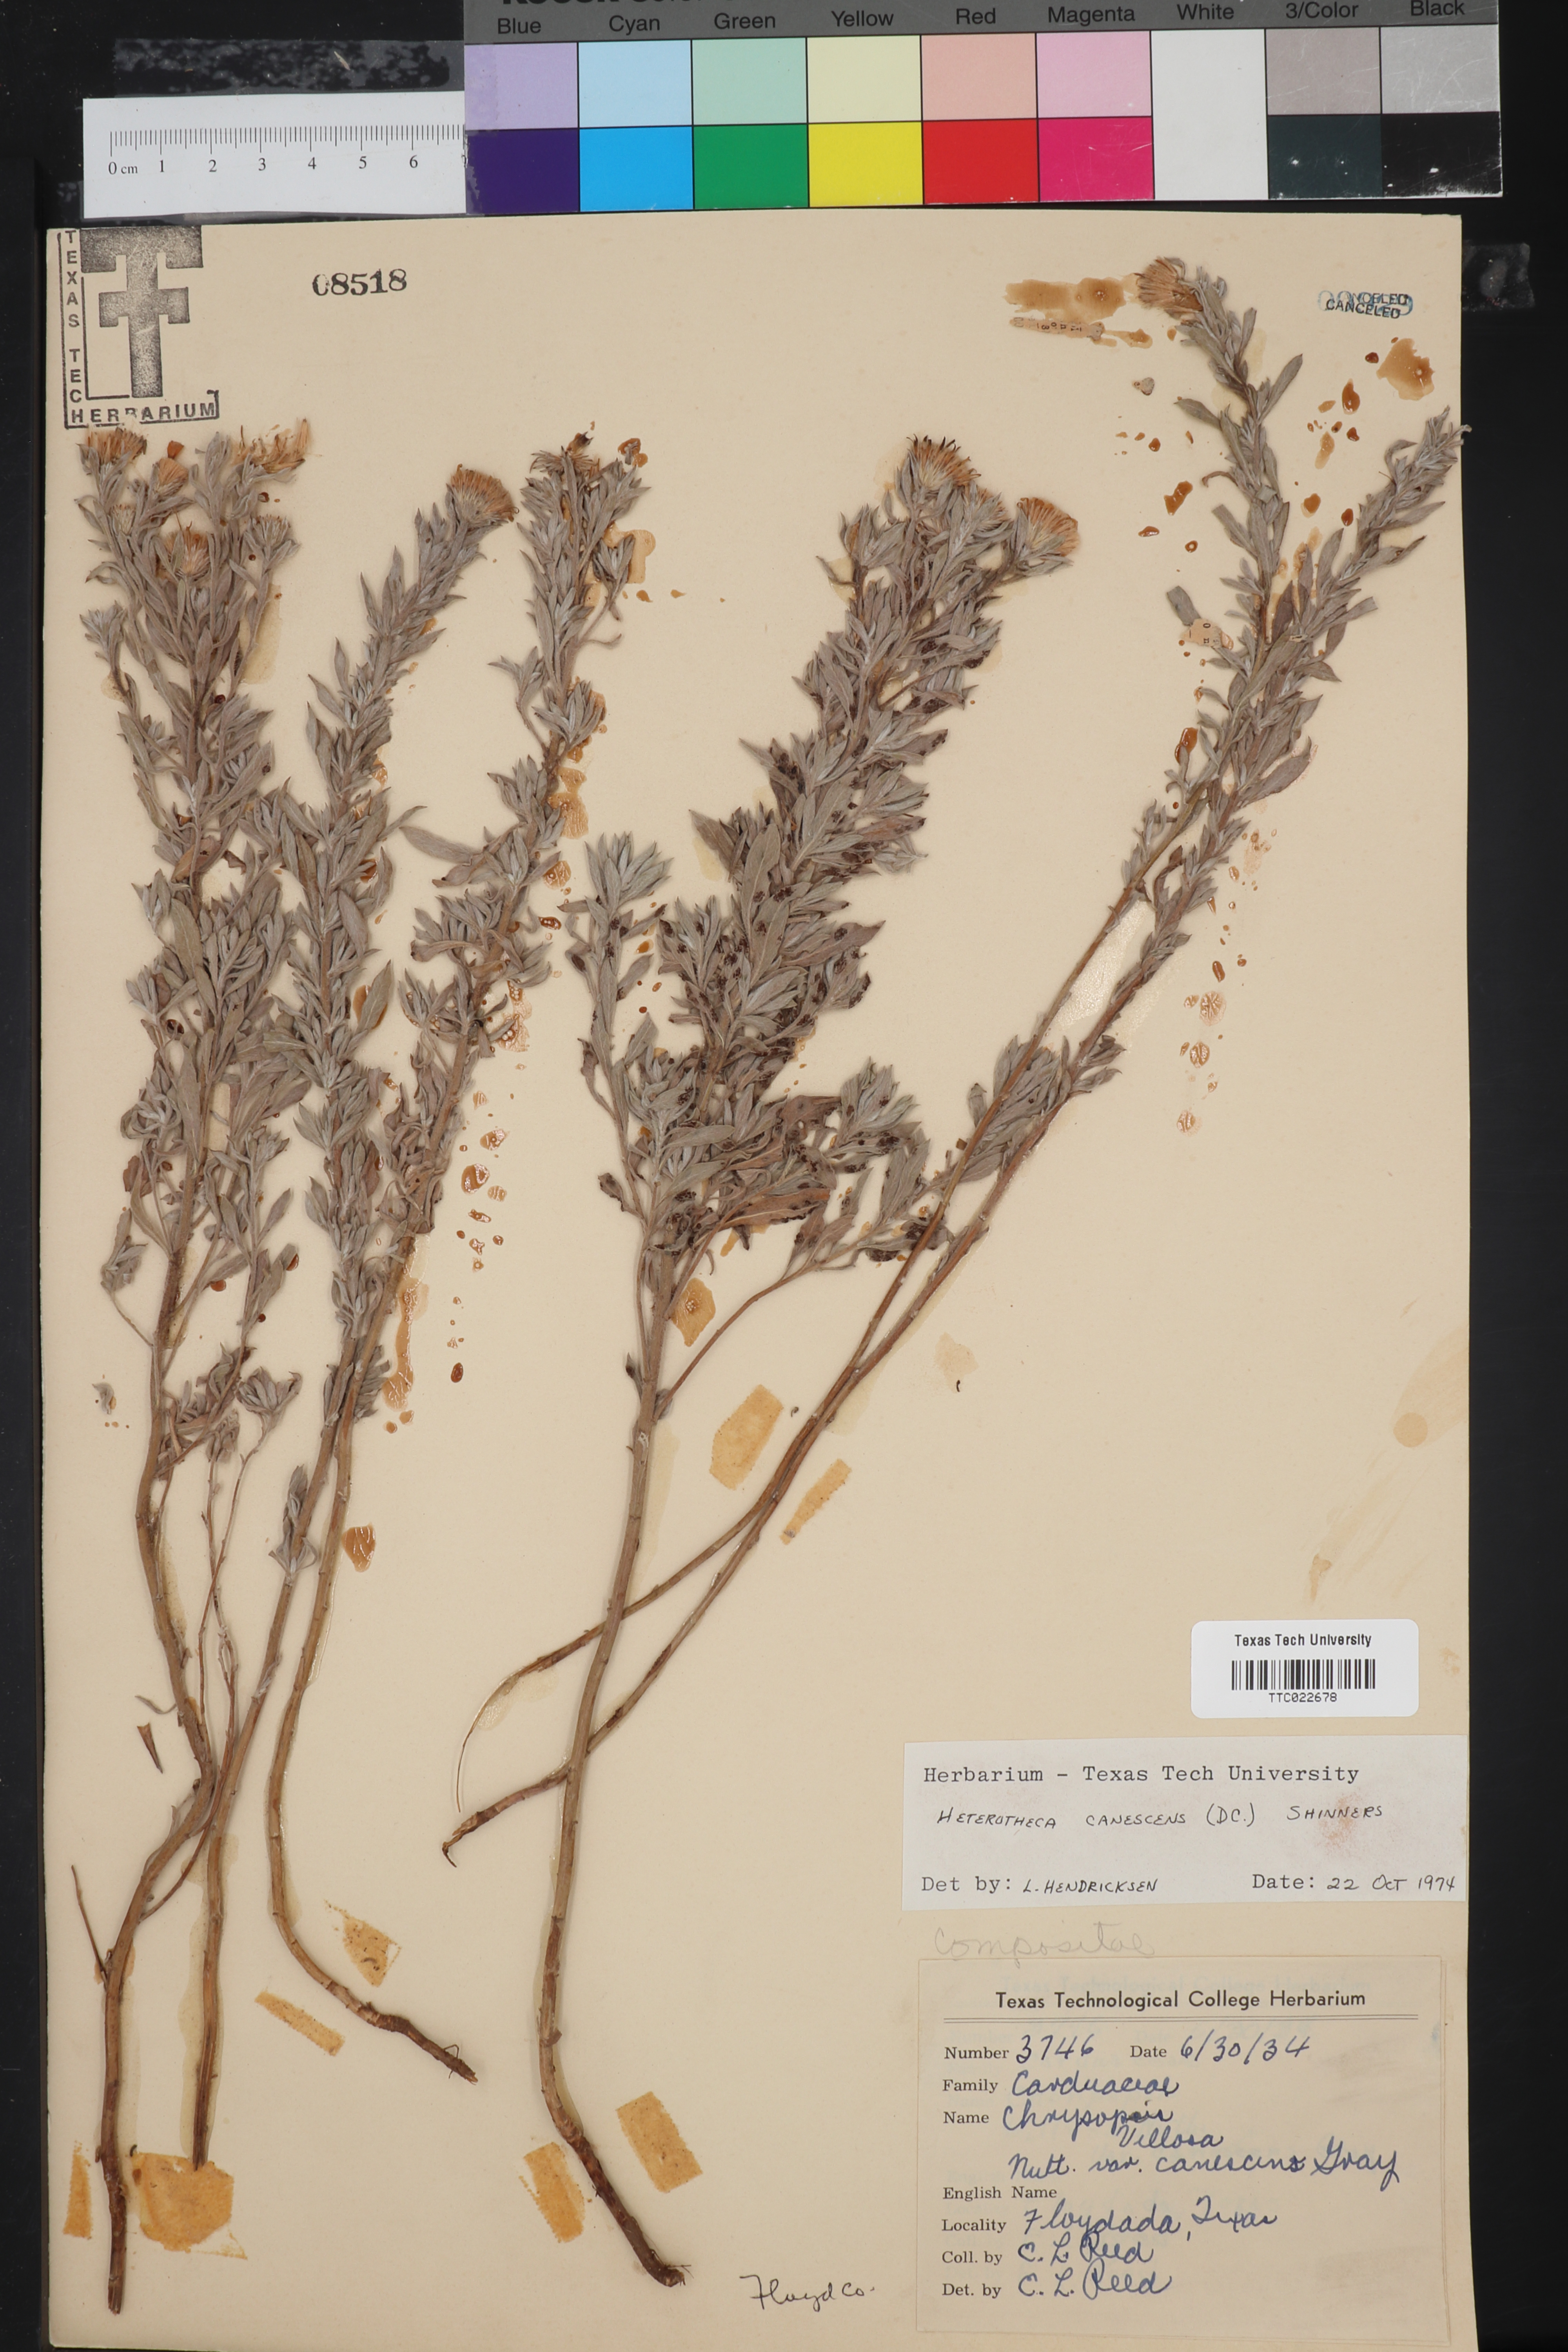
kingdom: Plantae
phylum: Tracheophyta
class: Magnoliopsida
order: Asterales
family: Asteraceae
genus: Heterotheca
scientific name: Heterotheca canescens
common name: Hoary golden-aster
